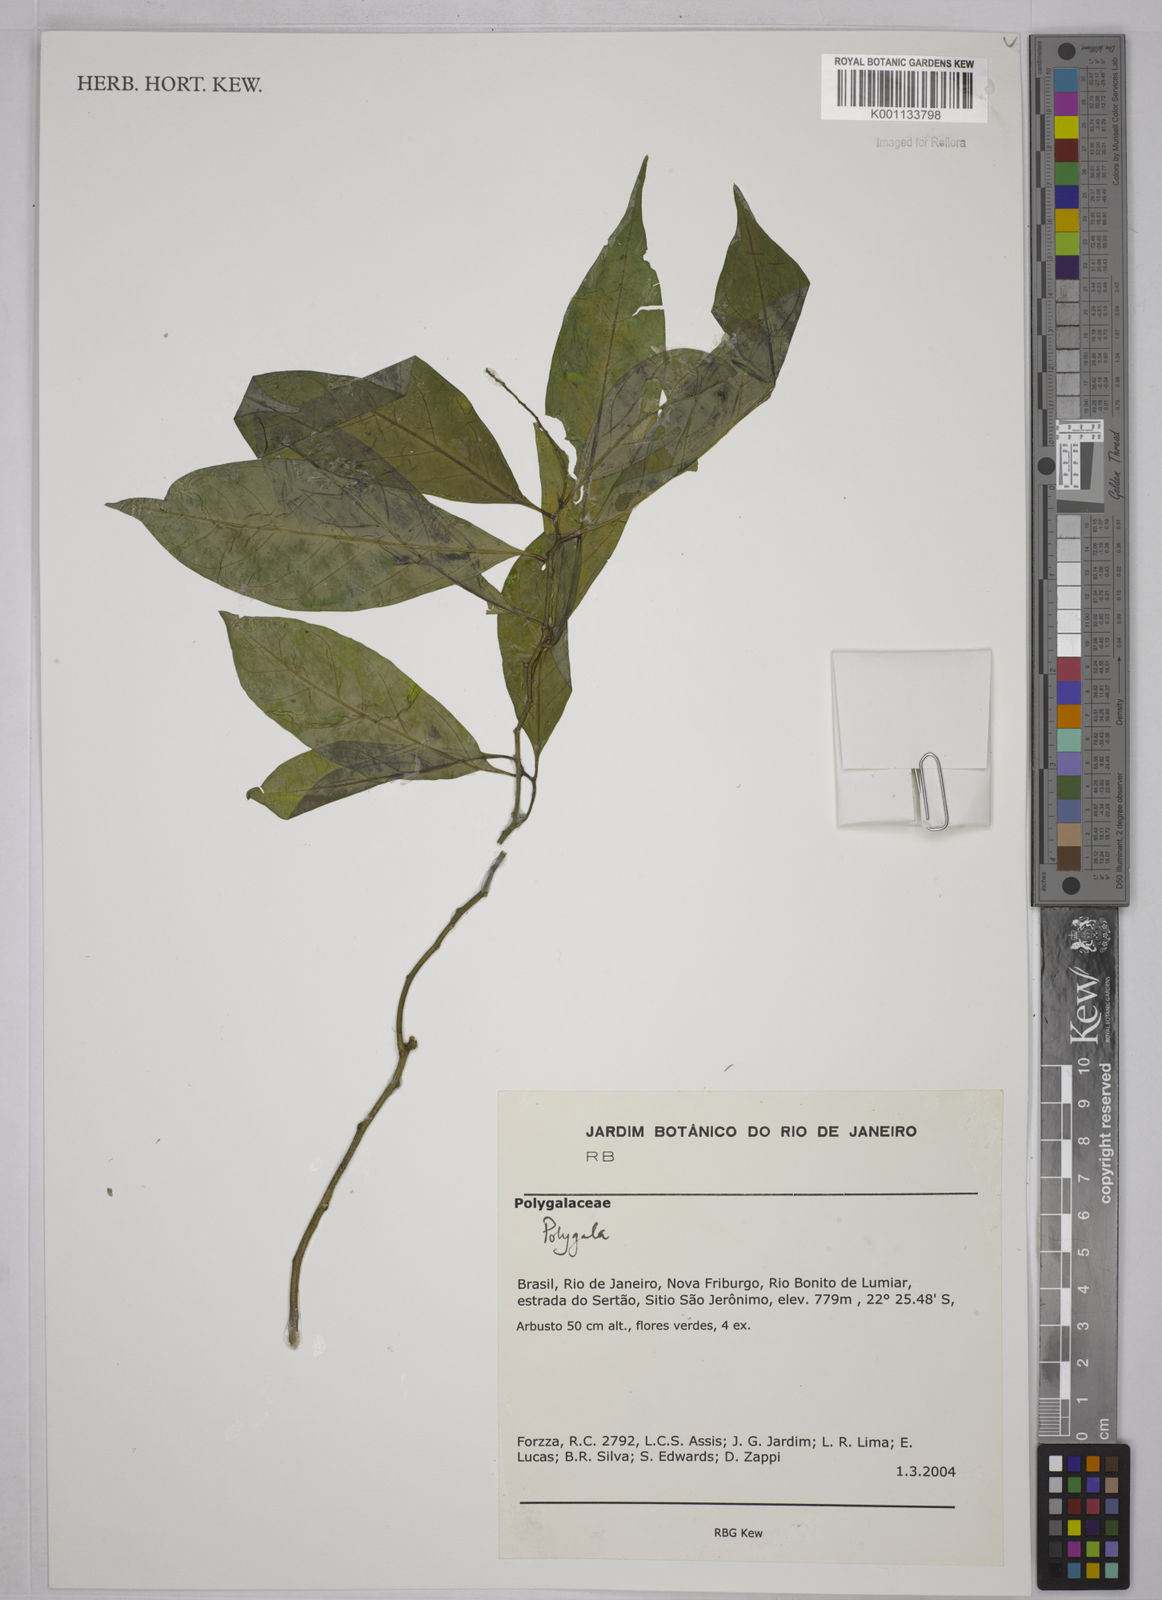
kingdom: Plantae
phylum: Tracheophyta
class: Magnoliopsida
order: Fabales
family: Polygalaceae
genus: Polygala
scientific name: Polygala
